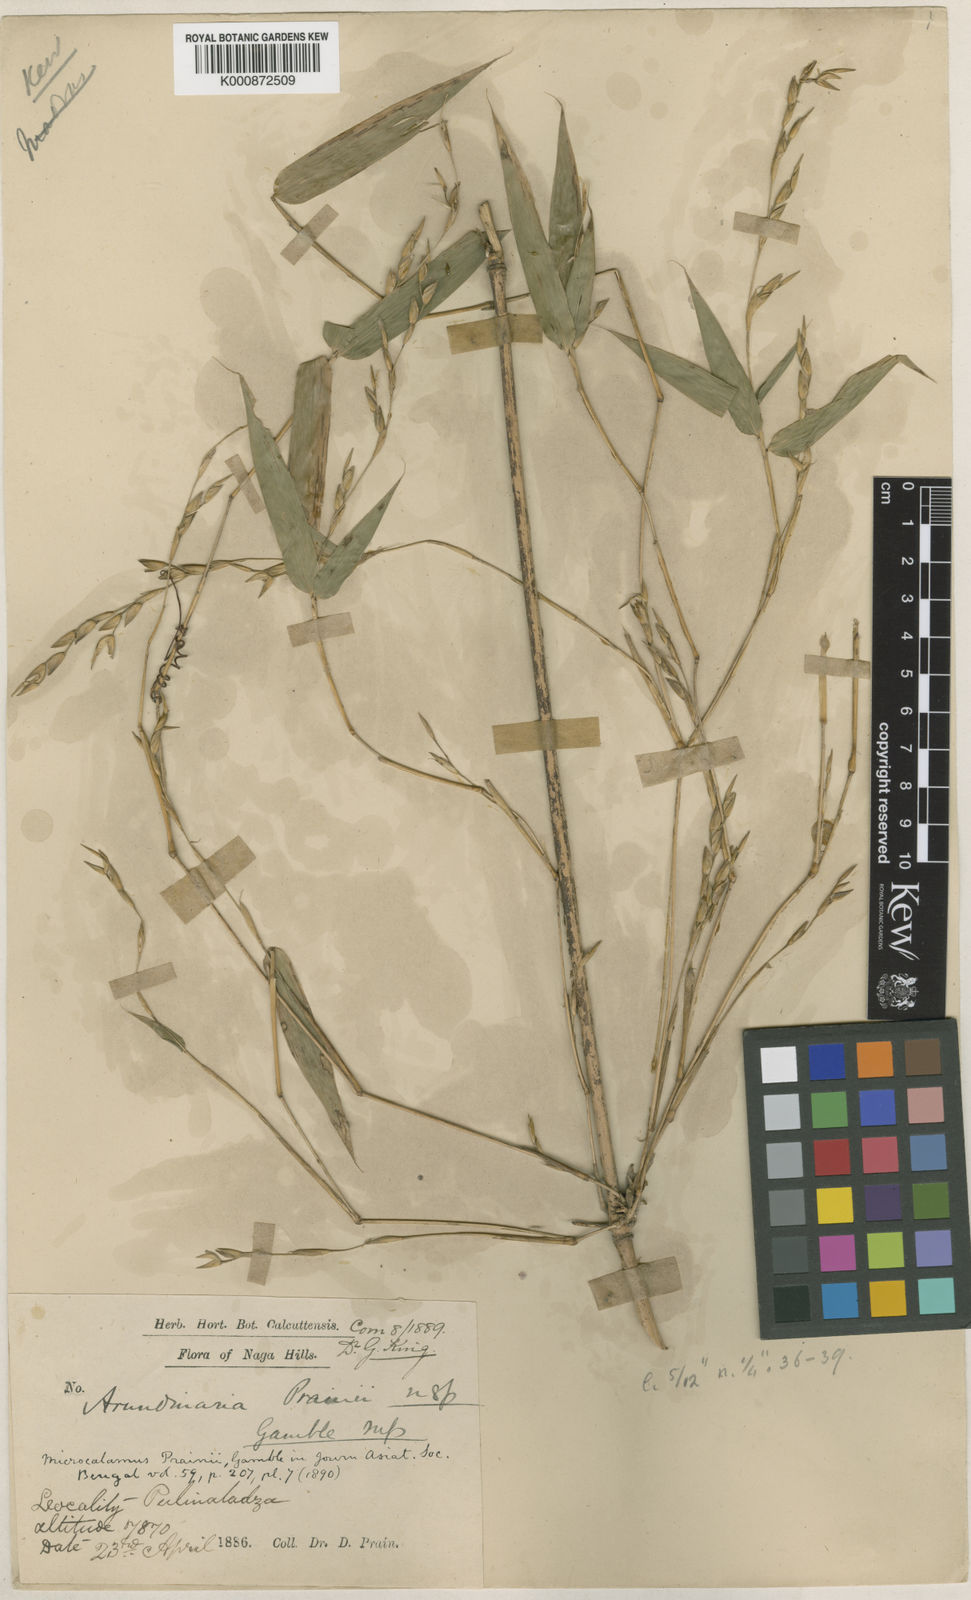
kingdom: Plantae
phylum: Tracheophyta
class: Liliopsida
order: Poales
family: Poaceae
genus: Neomicrocalamus
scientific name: Neomicrocalamus prainii
